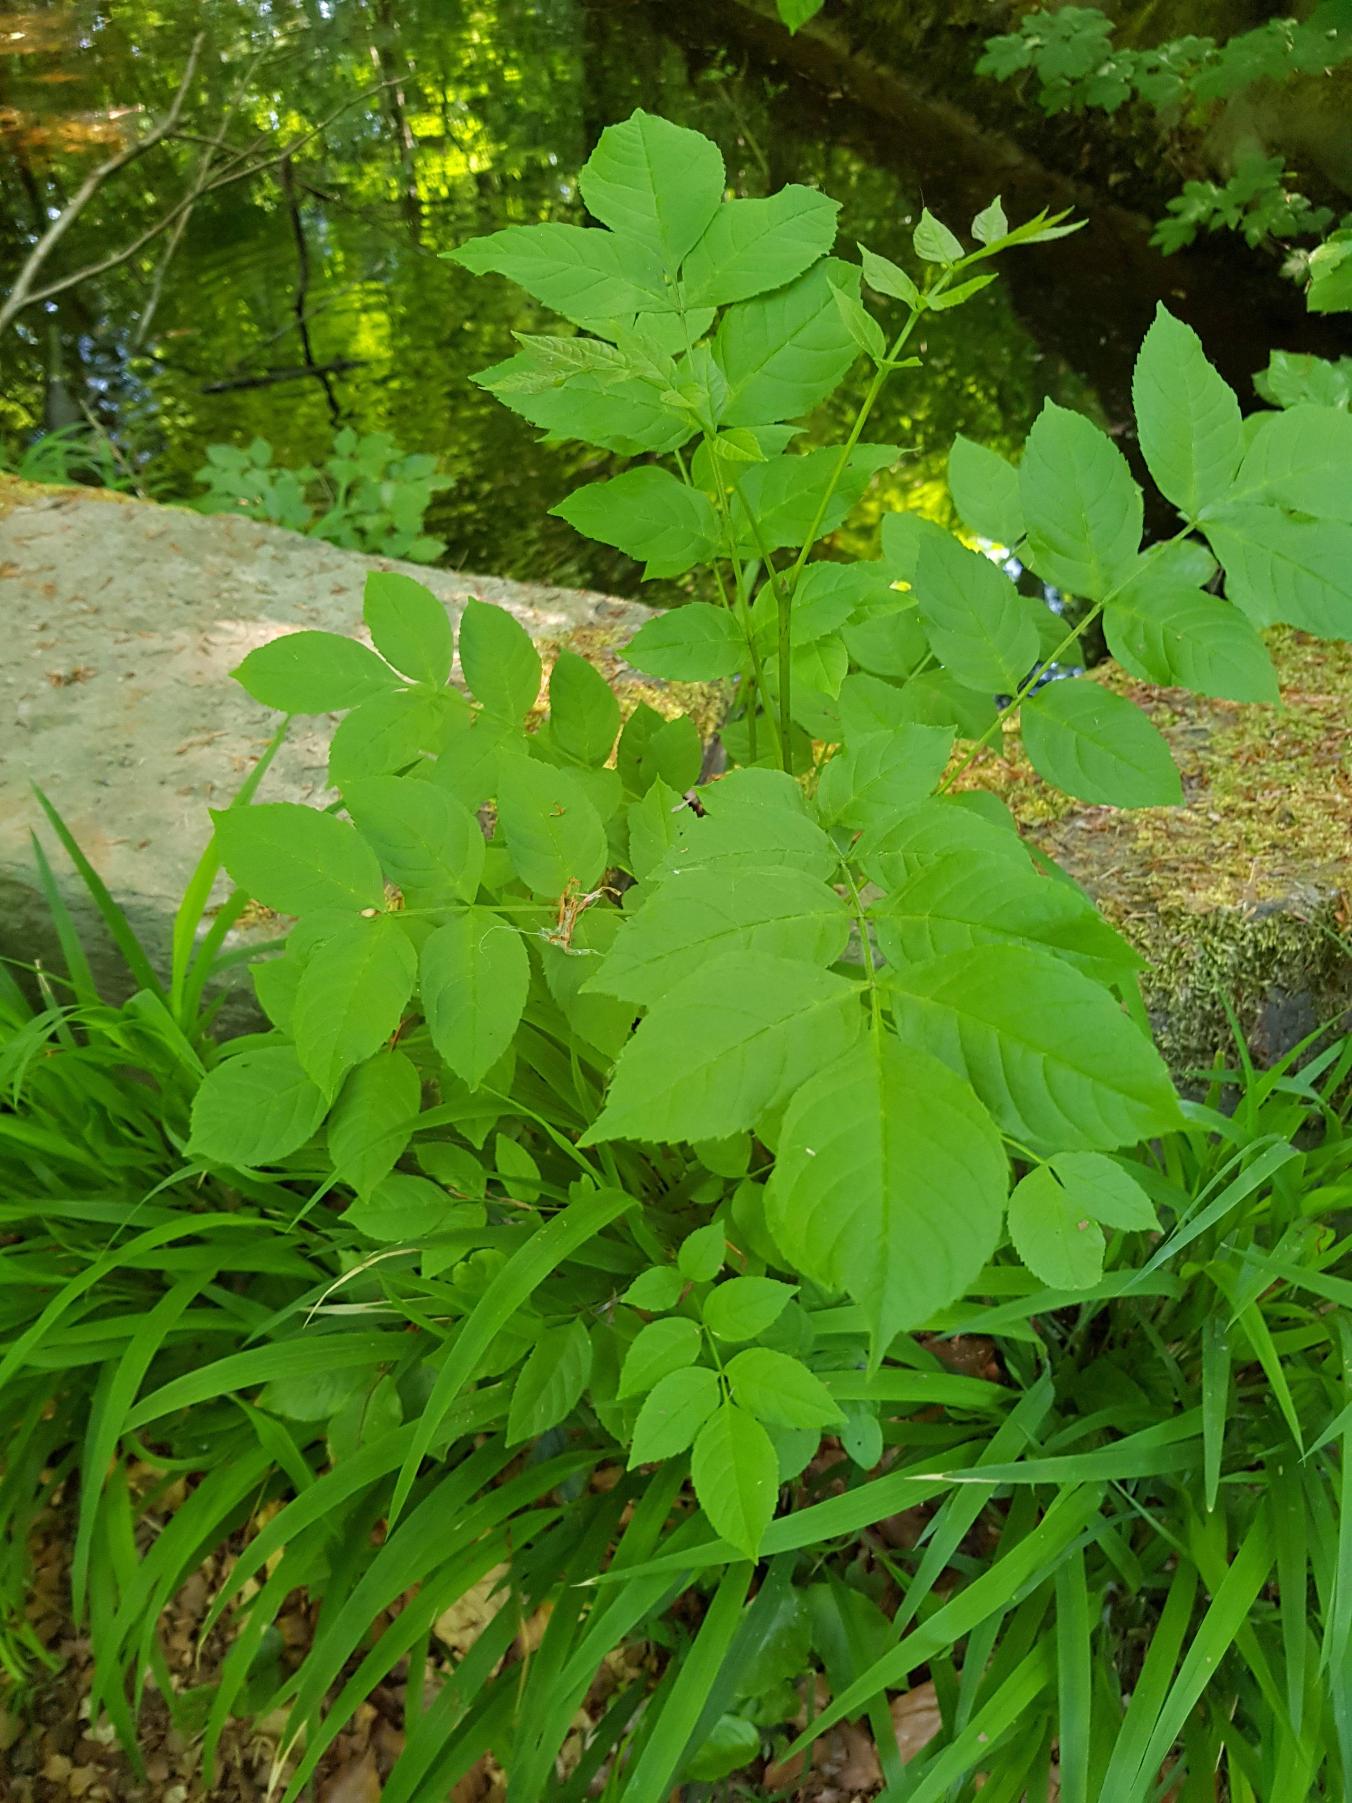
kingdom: Plantae
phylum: Tracheophyta
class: Magnoliopsida
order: Lamiales
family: Oleaceae
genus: Fraxinus
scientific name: Fraxinus excelsior
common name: Ask
